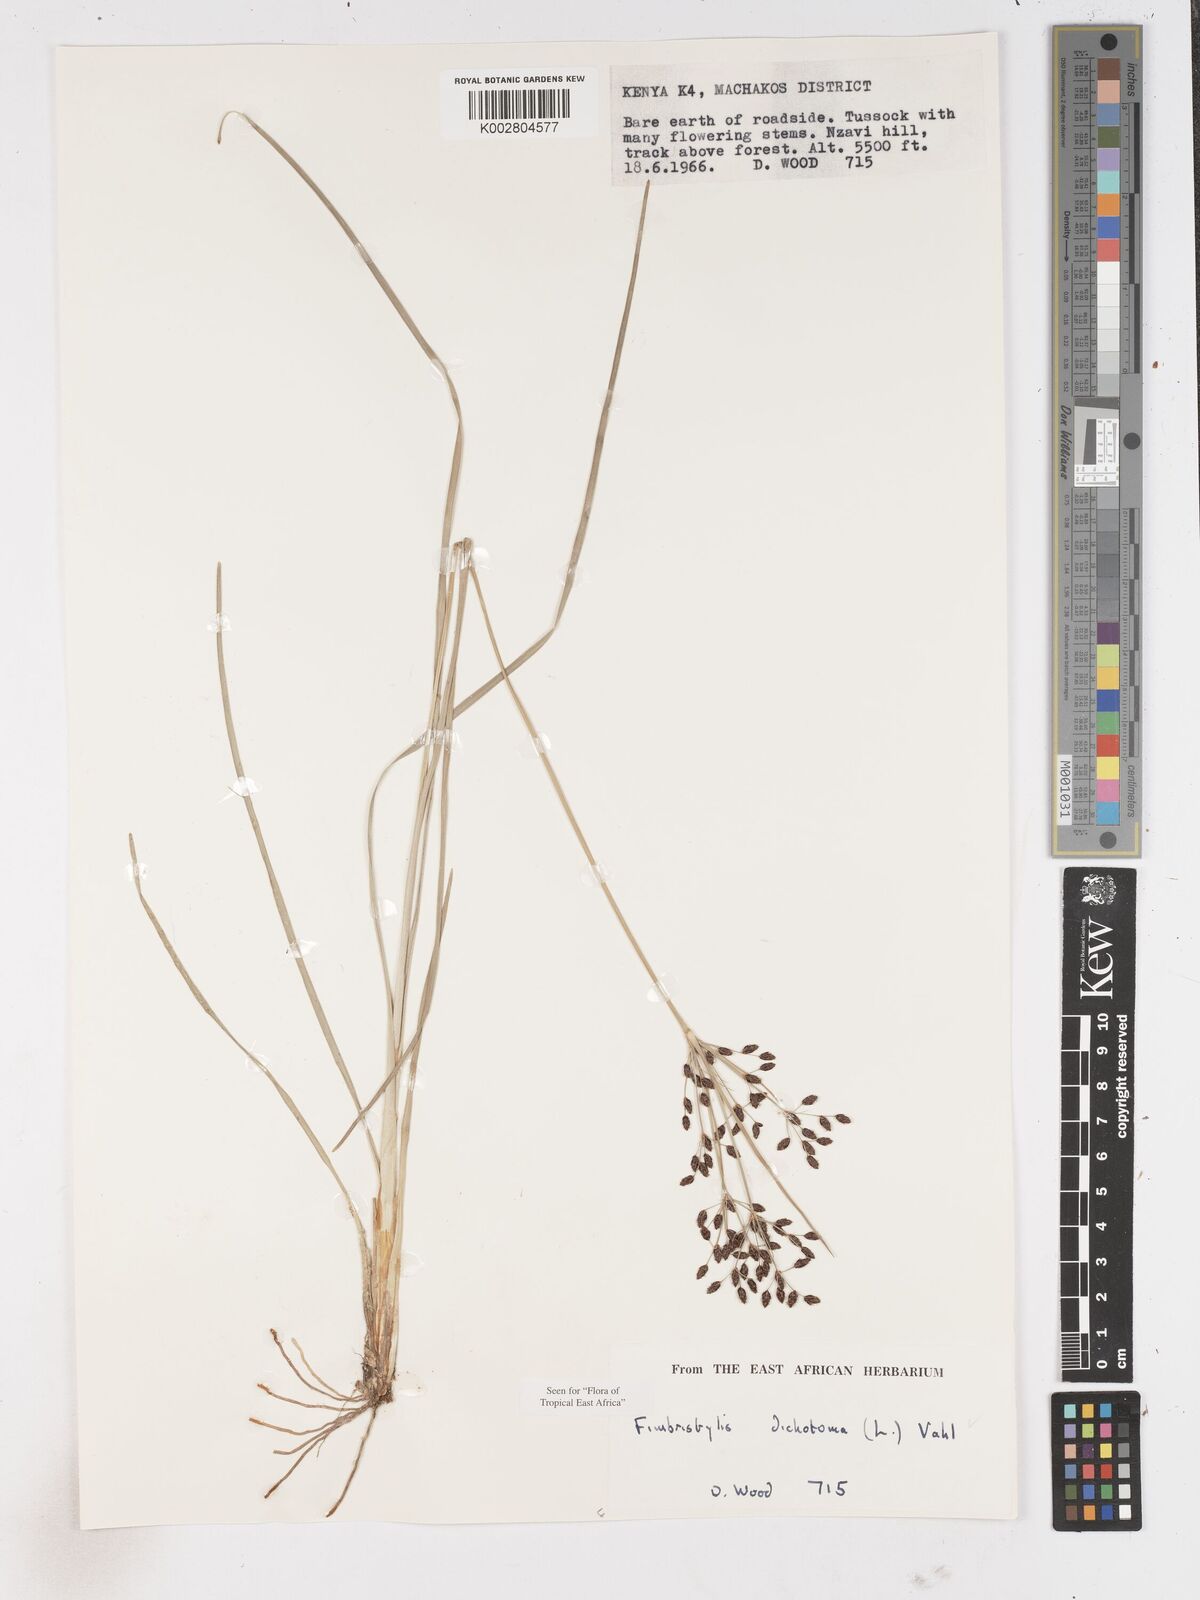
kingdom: Plantae
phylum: Tracheophyta
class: Liliopsida
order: Poales
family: Cyperaceae
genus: Fimbristylis
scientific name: Fimbristylis dichotoma
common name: Forked fimbry
